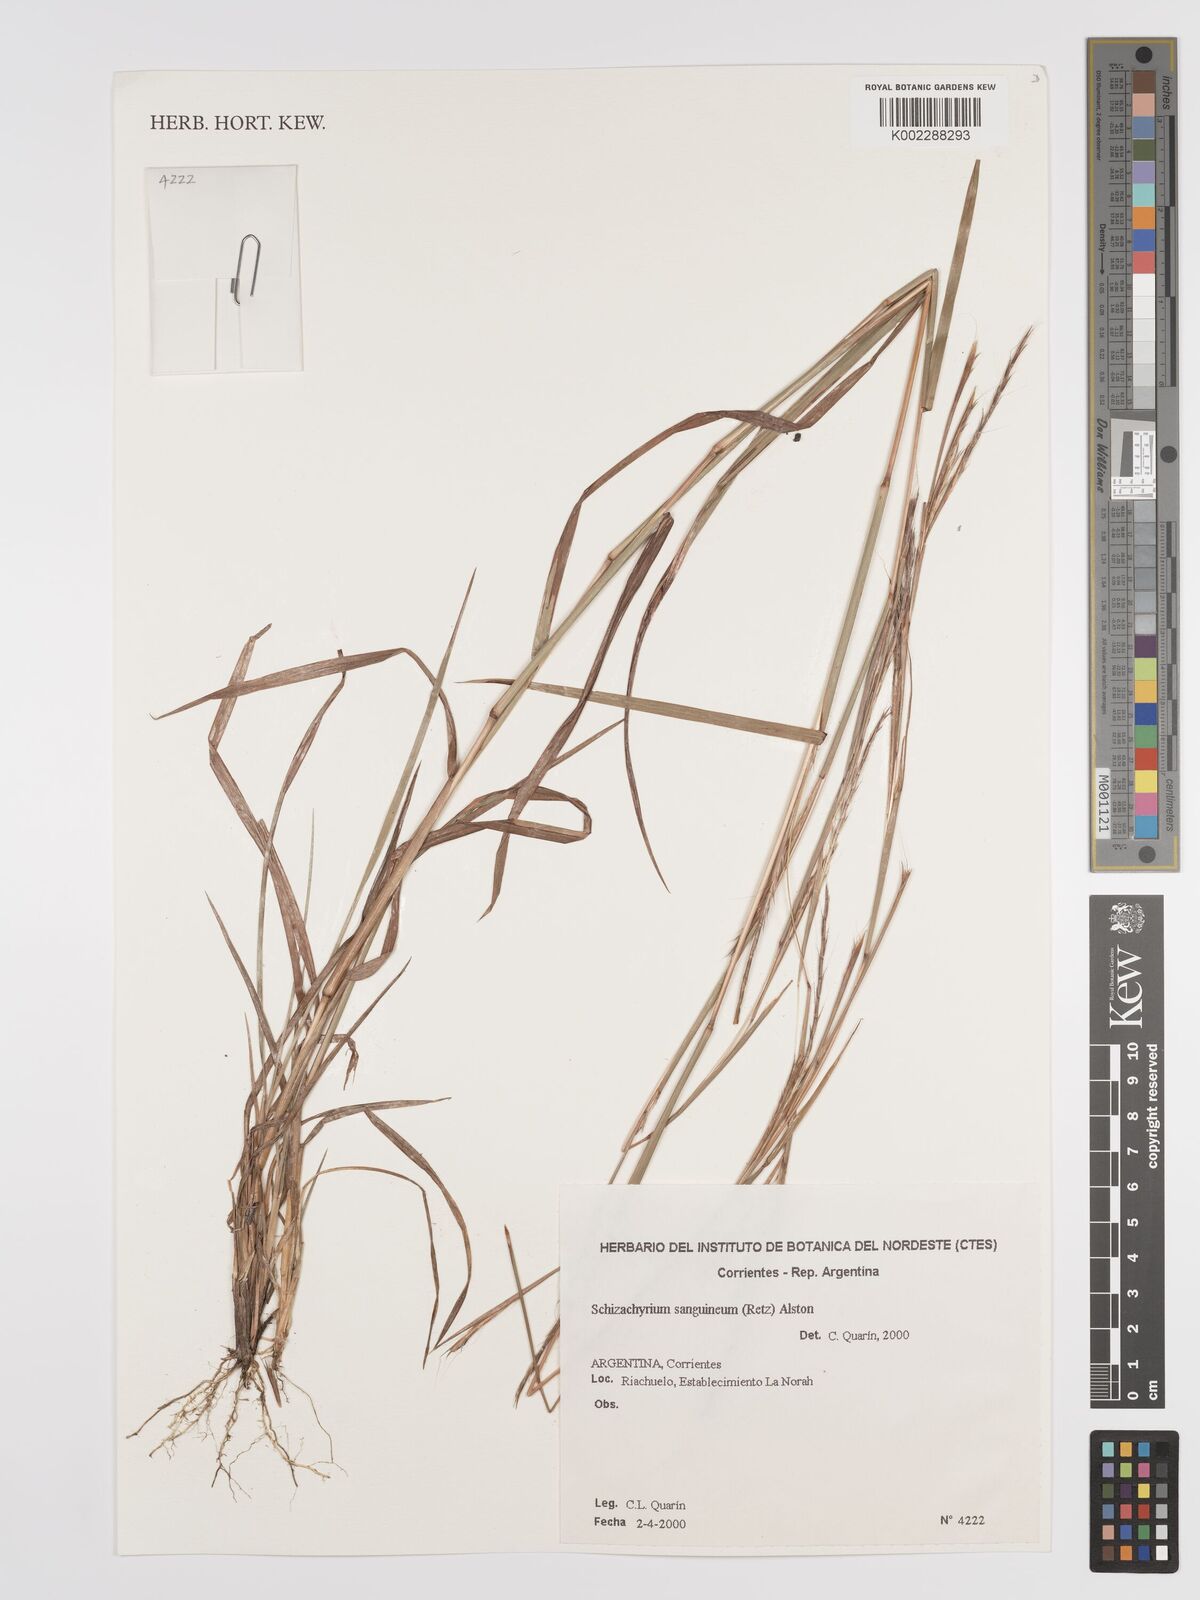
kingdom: Plantae
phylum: Tracheophyta
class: Liliopsida
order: Poales
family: Poaceae
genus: Schizachyrium
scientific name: Schizachyrium sanguineum
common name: Crimson bluestem
